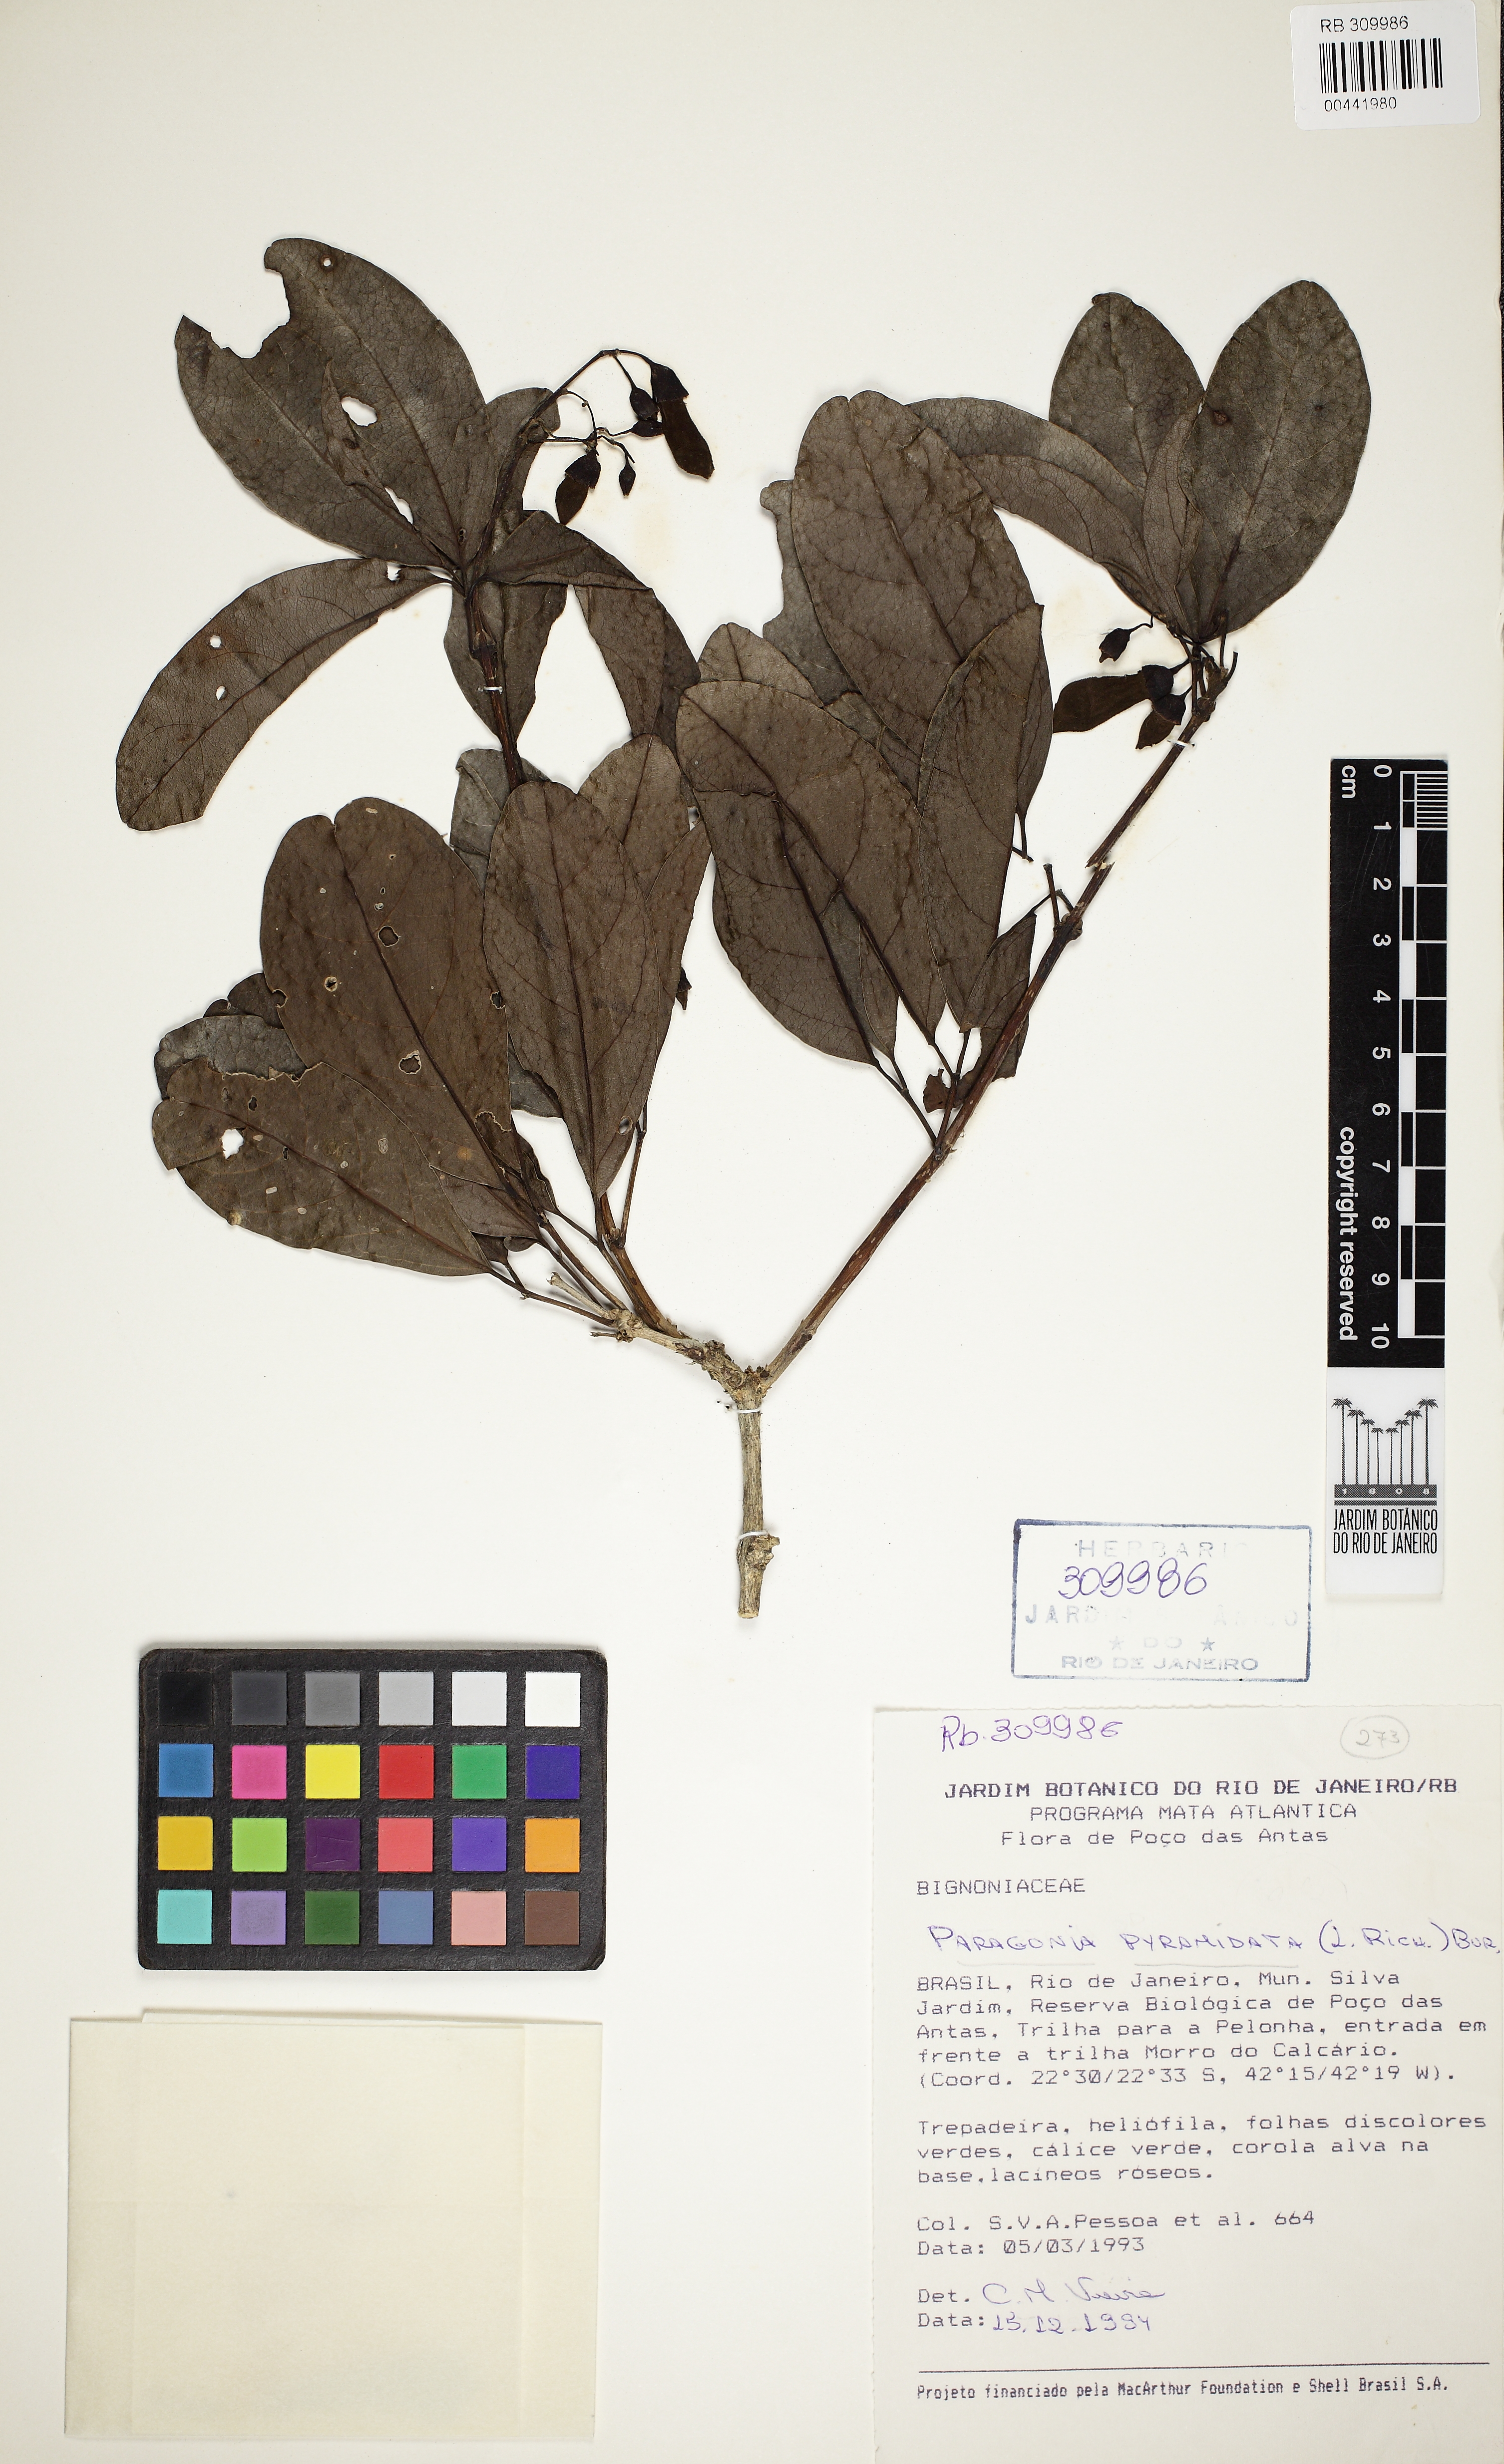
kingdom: Plantae
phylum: Tracheophyta
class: Magnoliopsida
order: Lamiales
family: Bignoniaceae
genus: Tanaecium
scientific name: Tanaecium pyramidatum
